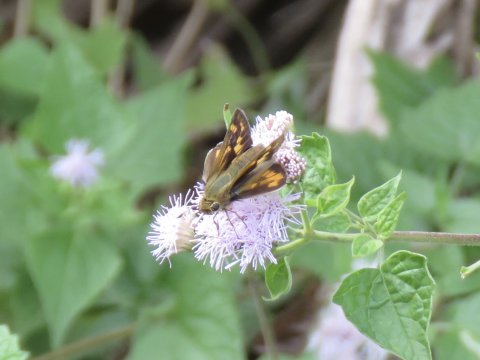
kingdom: Animalia
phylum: Arthropoda
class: Insecta
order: Lepidoptera
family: Hesperiidae
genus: Hylephila
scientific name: Hylephila phyleus
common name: Fiery Skipper
